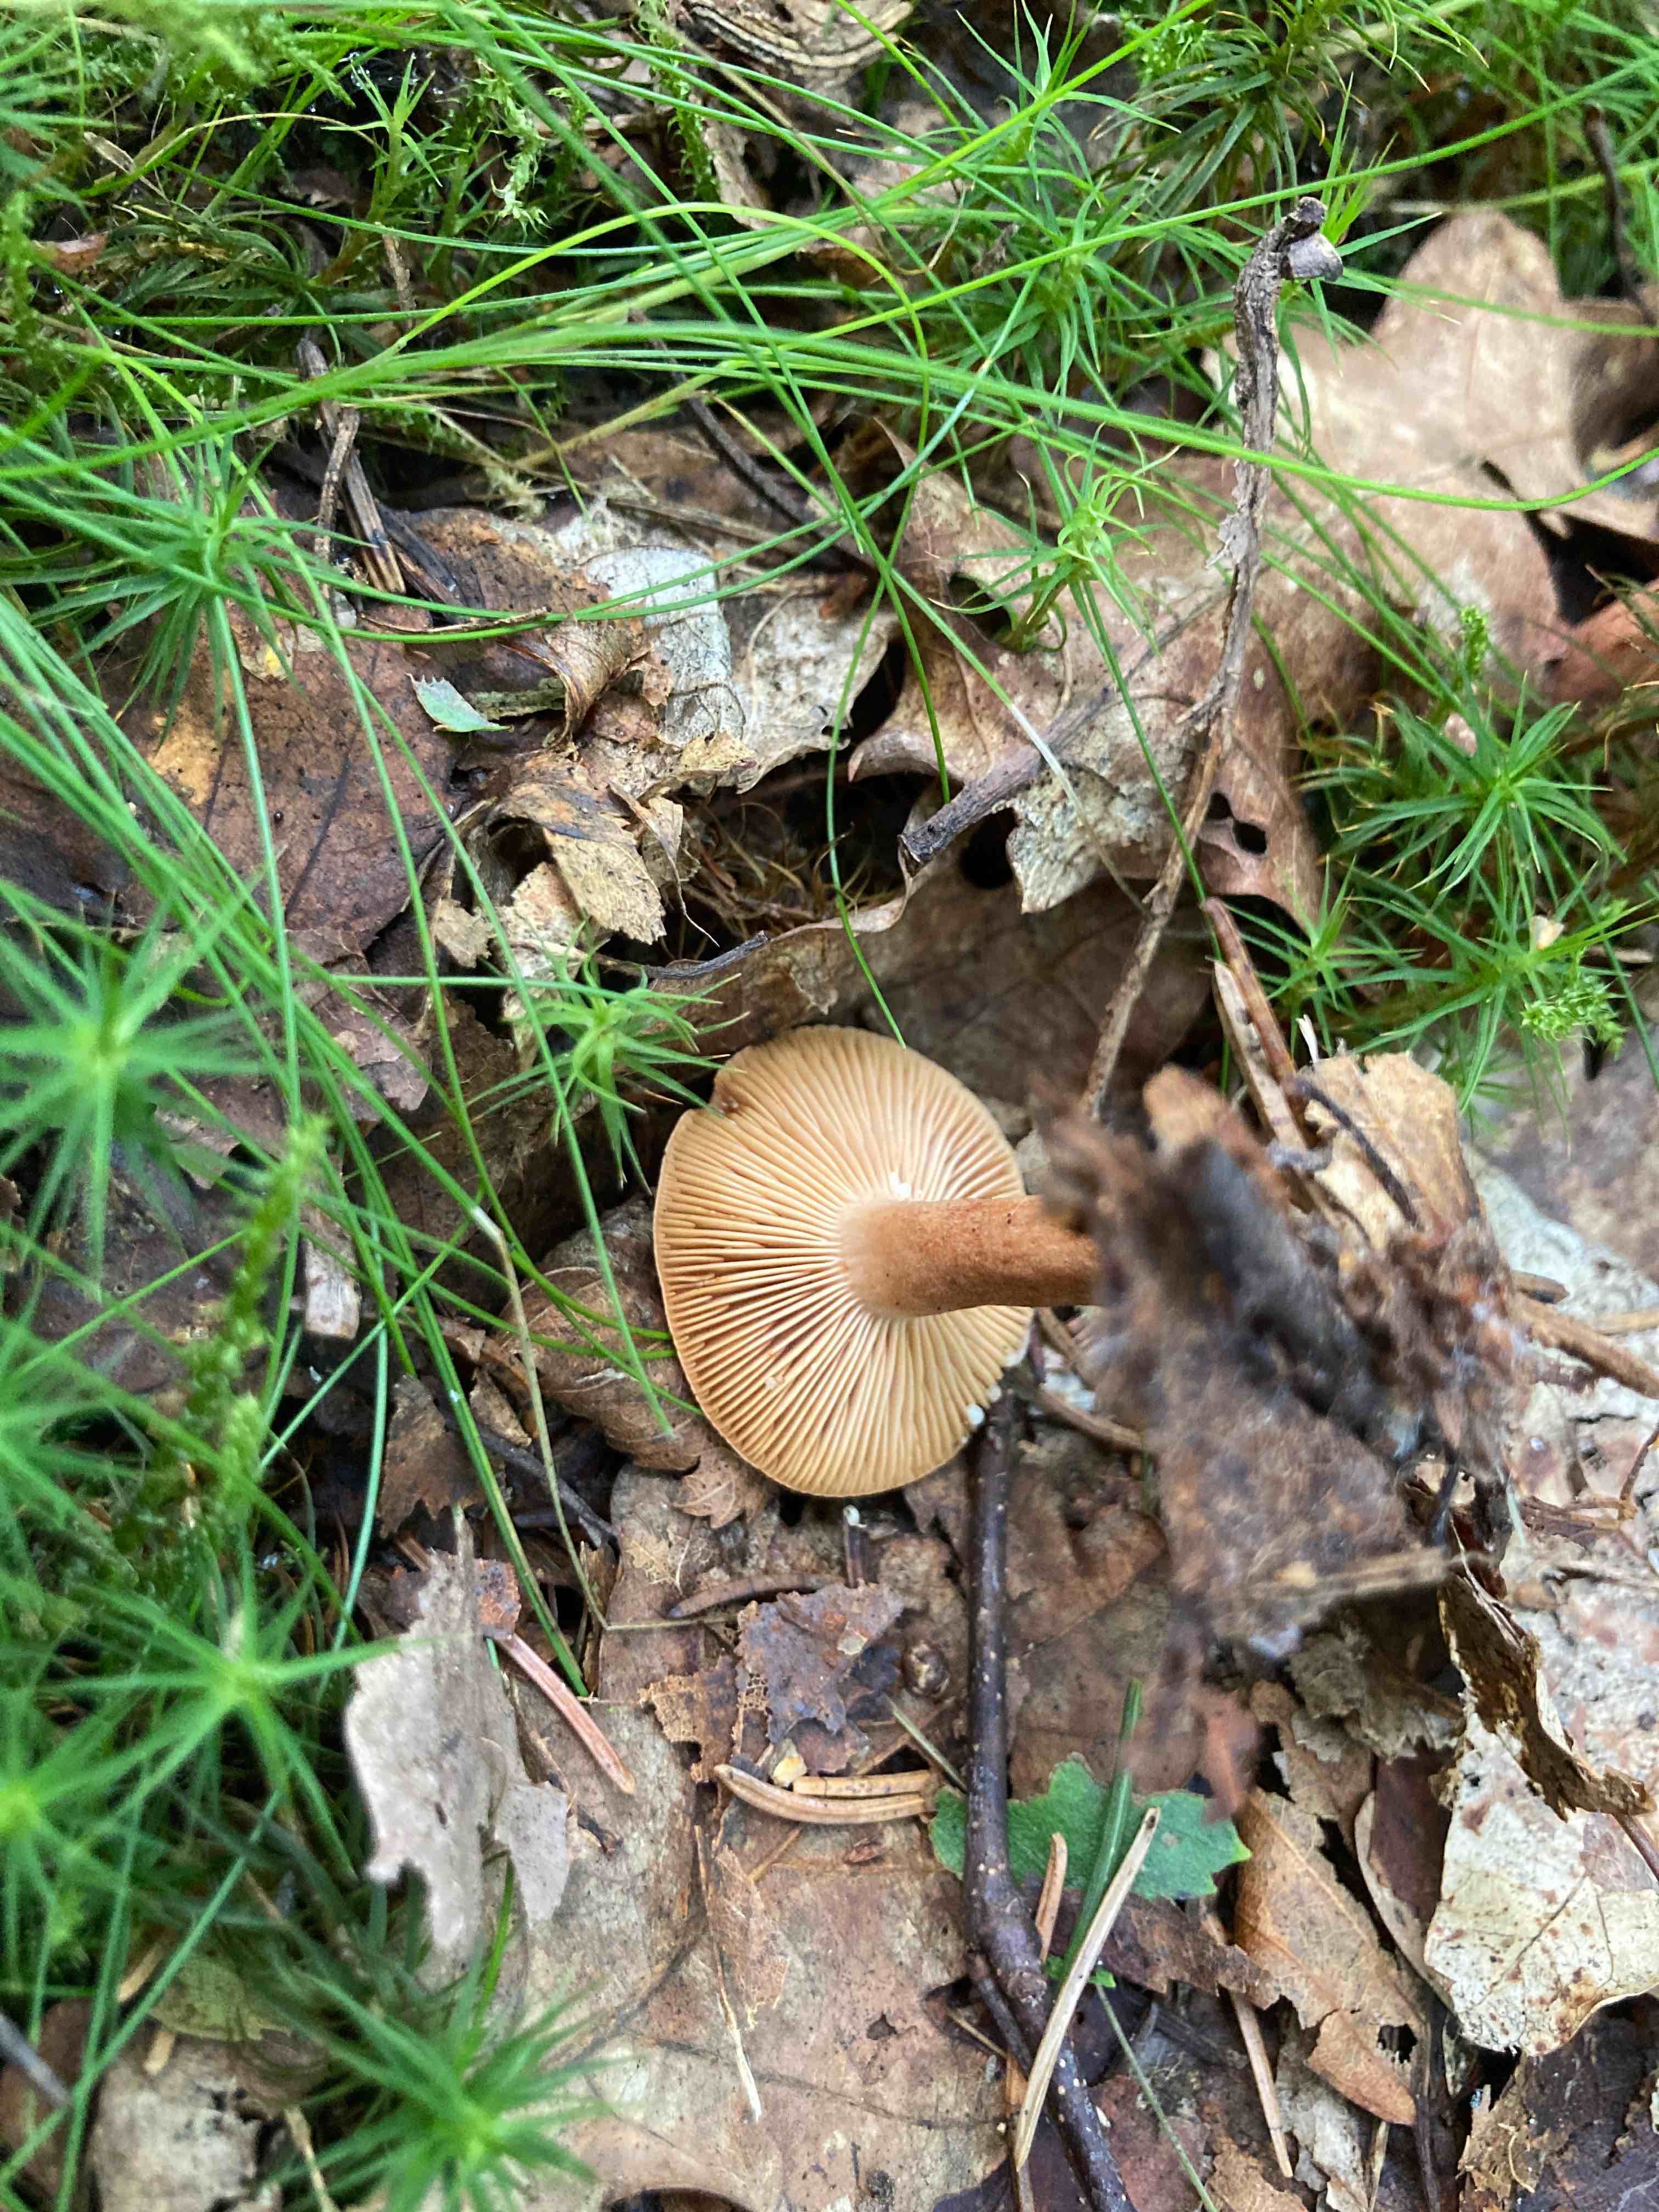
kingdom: Fungi
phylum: Basidiomycota
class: Agaricomycetes
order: Russulales
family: Russulaceae
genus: Lactarius
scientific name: Lactarius quietus
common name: ege-mælkehat
